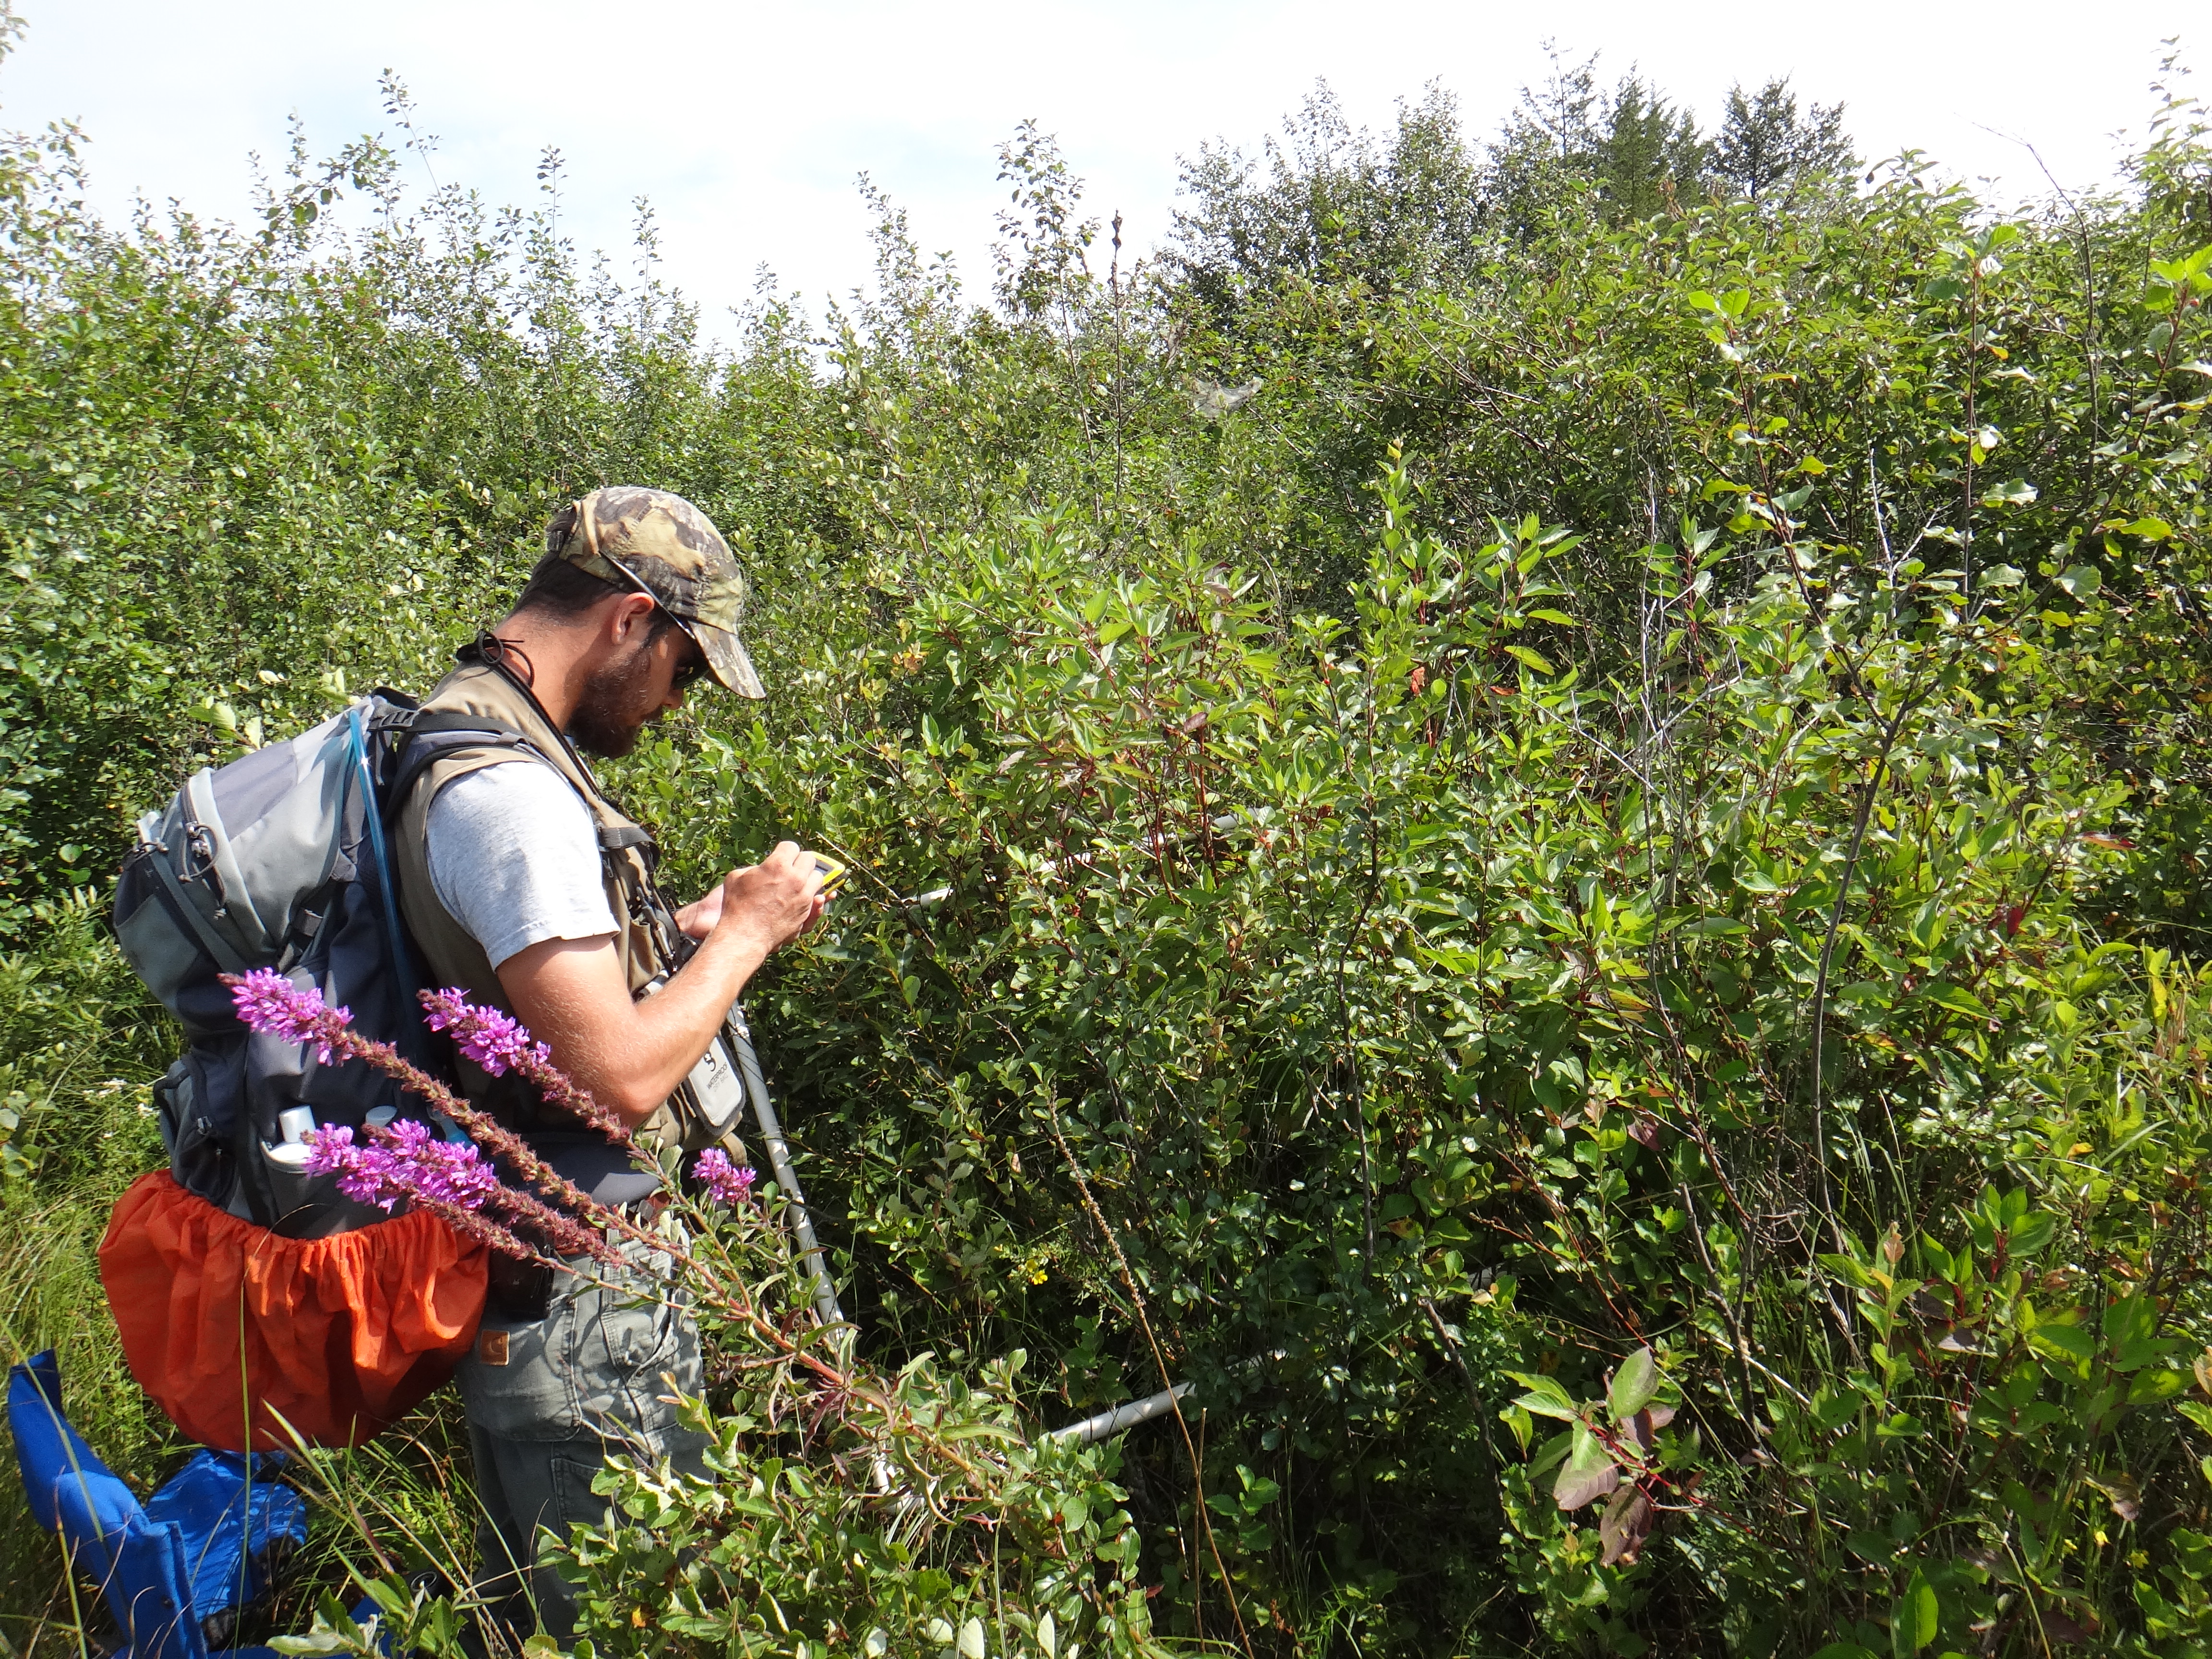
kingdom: Plantae
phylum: Tracheophyta
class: Magnoliopsida
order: Malpighiales
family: Salicaceae
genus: Salix
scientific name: Salix discolor
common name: Glaucous willow
